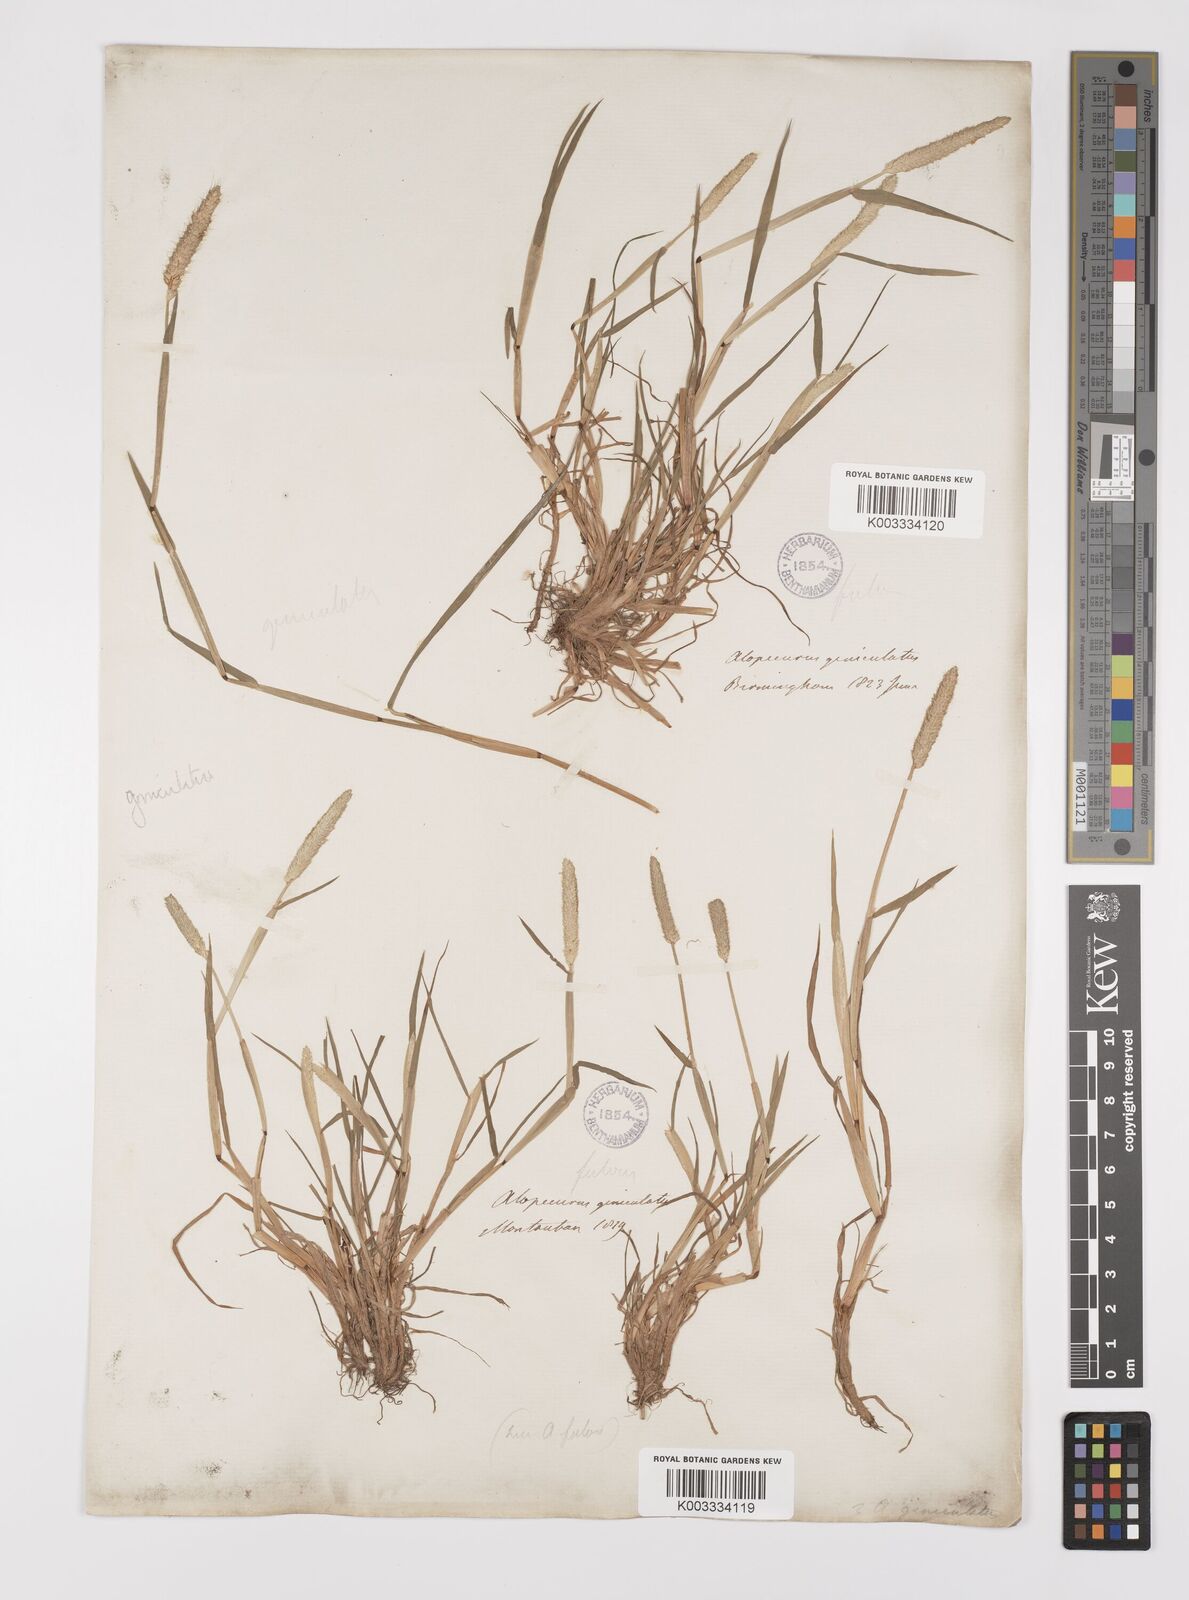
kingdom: Plantae
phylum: Tracheophyta
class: Liliopsida
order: Poales
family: Poaceae
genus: Alopecurus
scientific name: Alopecurus geniculatus
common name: Water foxtail
